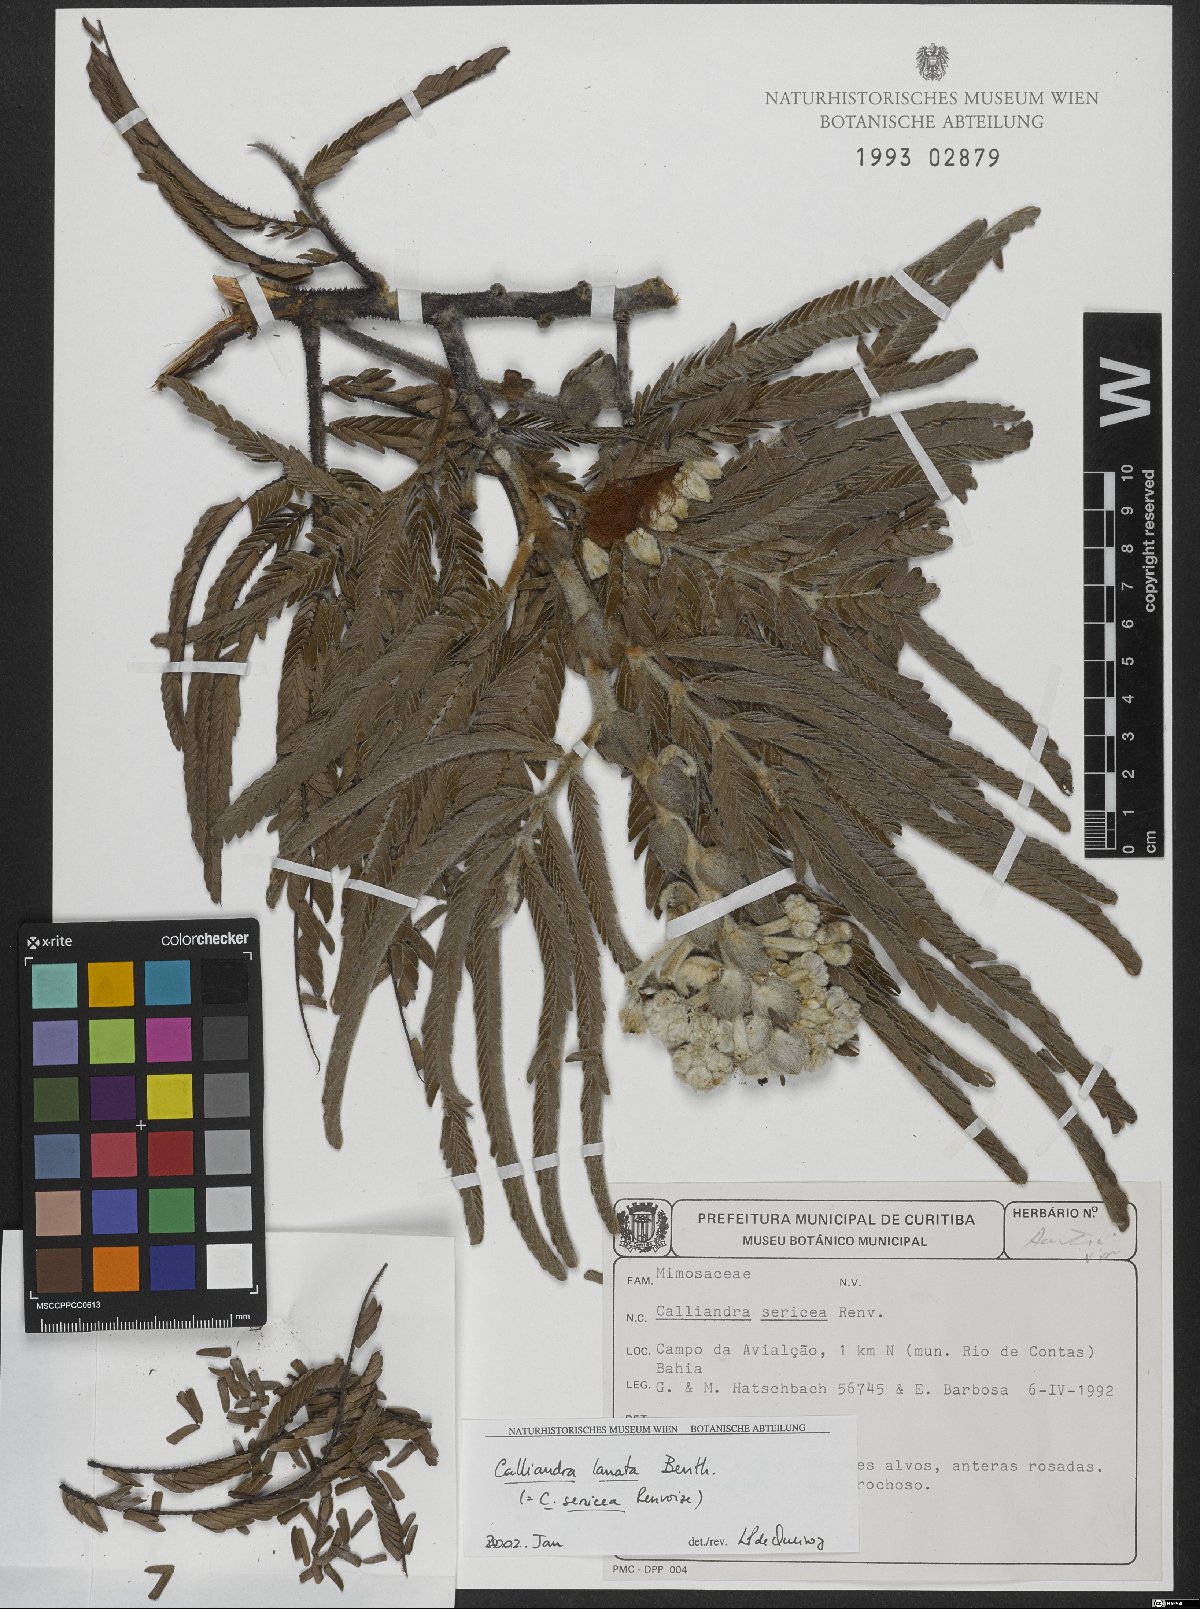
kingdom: Plantae
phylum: Tracheophyta
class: Magnoliopsida
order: Fabales
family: Fabaceae
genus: Calliandra
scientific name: Calliandra lanata
